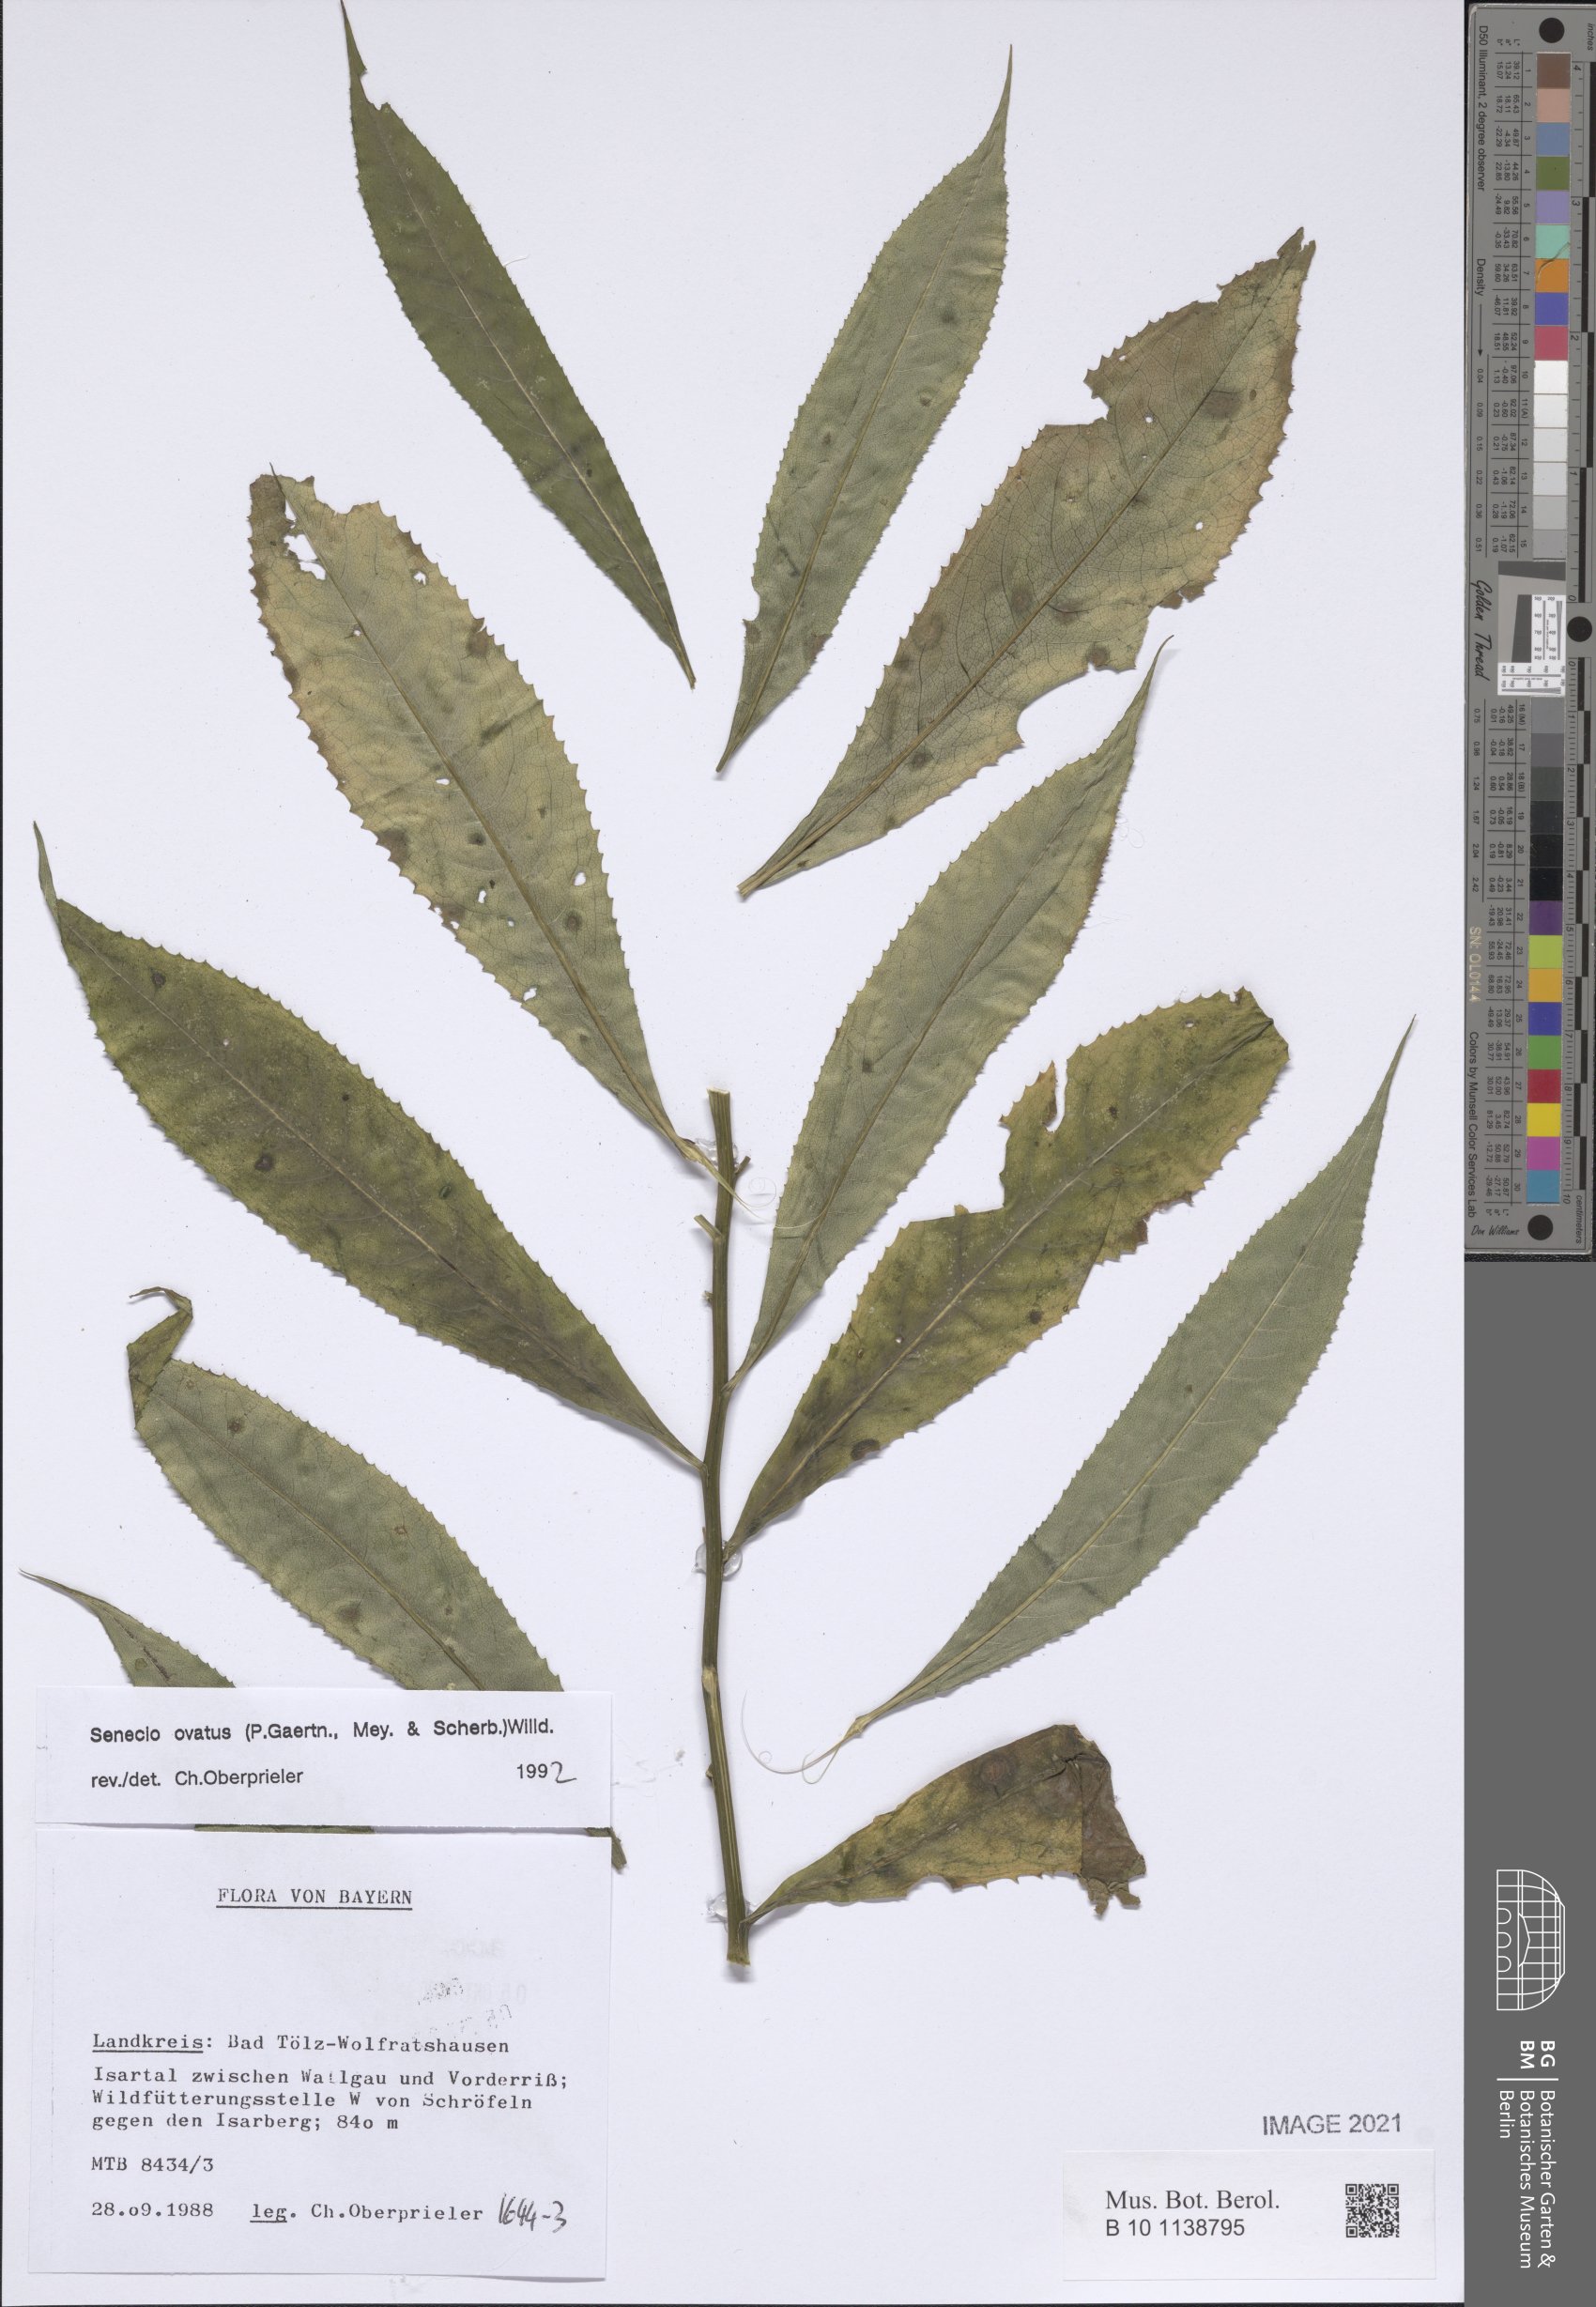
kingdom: Plantae
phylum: Tracheophyta
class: Magnoliopsida
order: Asterales
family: Asteraceae
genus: Senecio
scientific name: Senecio ovatus
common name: Wood ragwort
